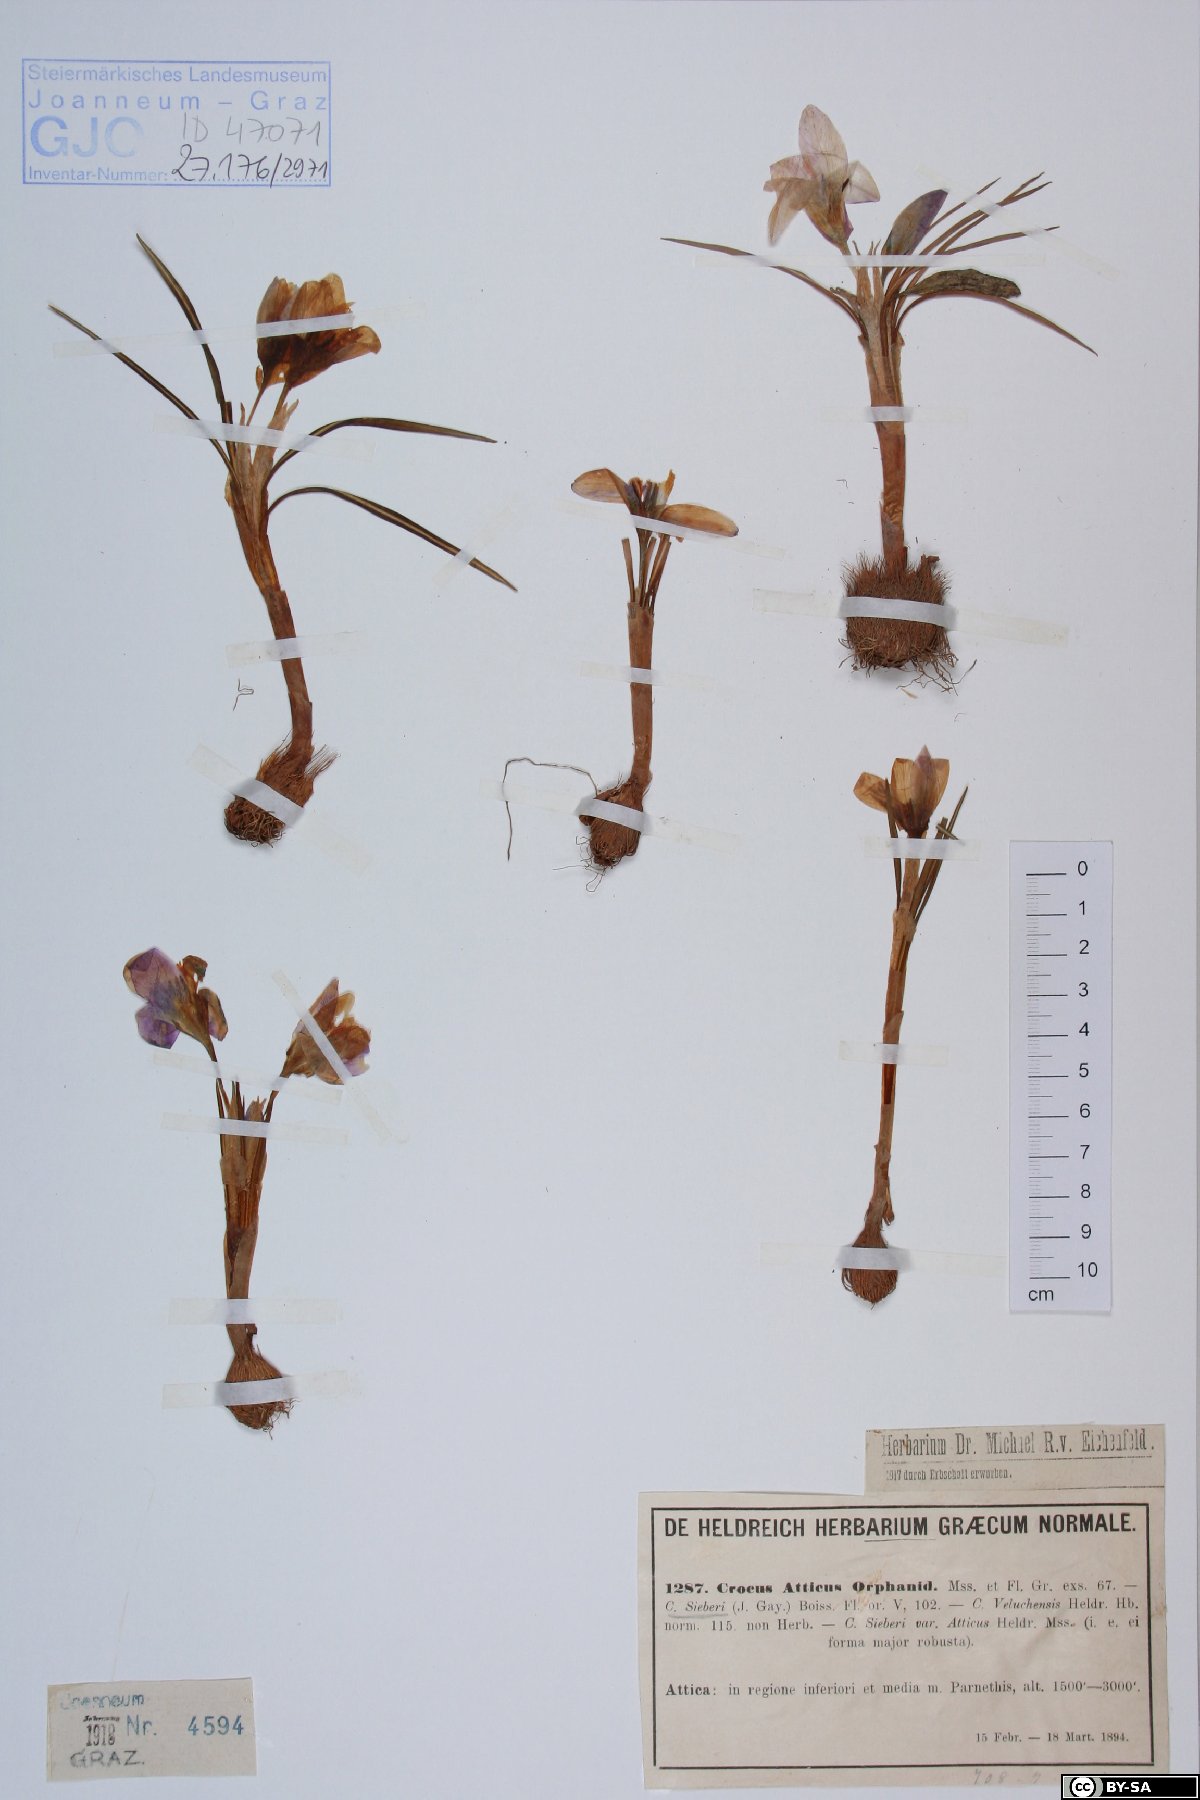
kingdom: Plantae
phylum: Tracheophyta
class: Liliopsida
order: Asparagales
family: Iridaceae
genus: Crocus
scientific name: Crocus atticus
